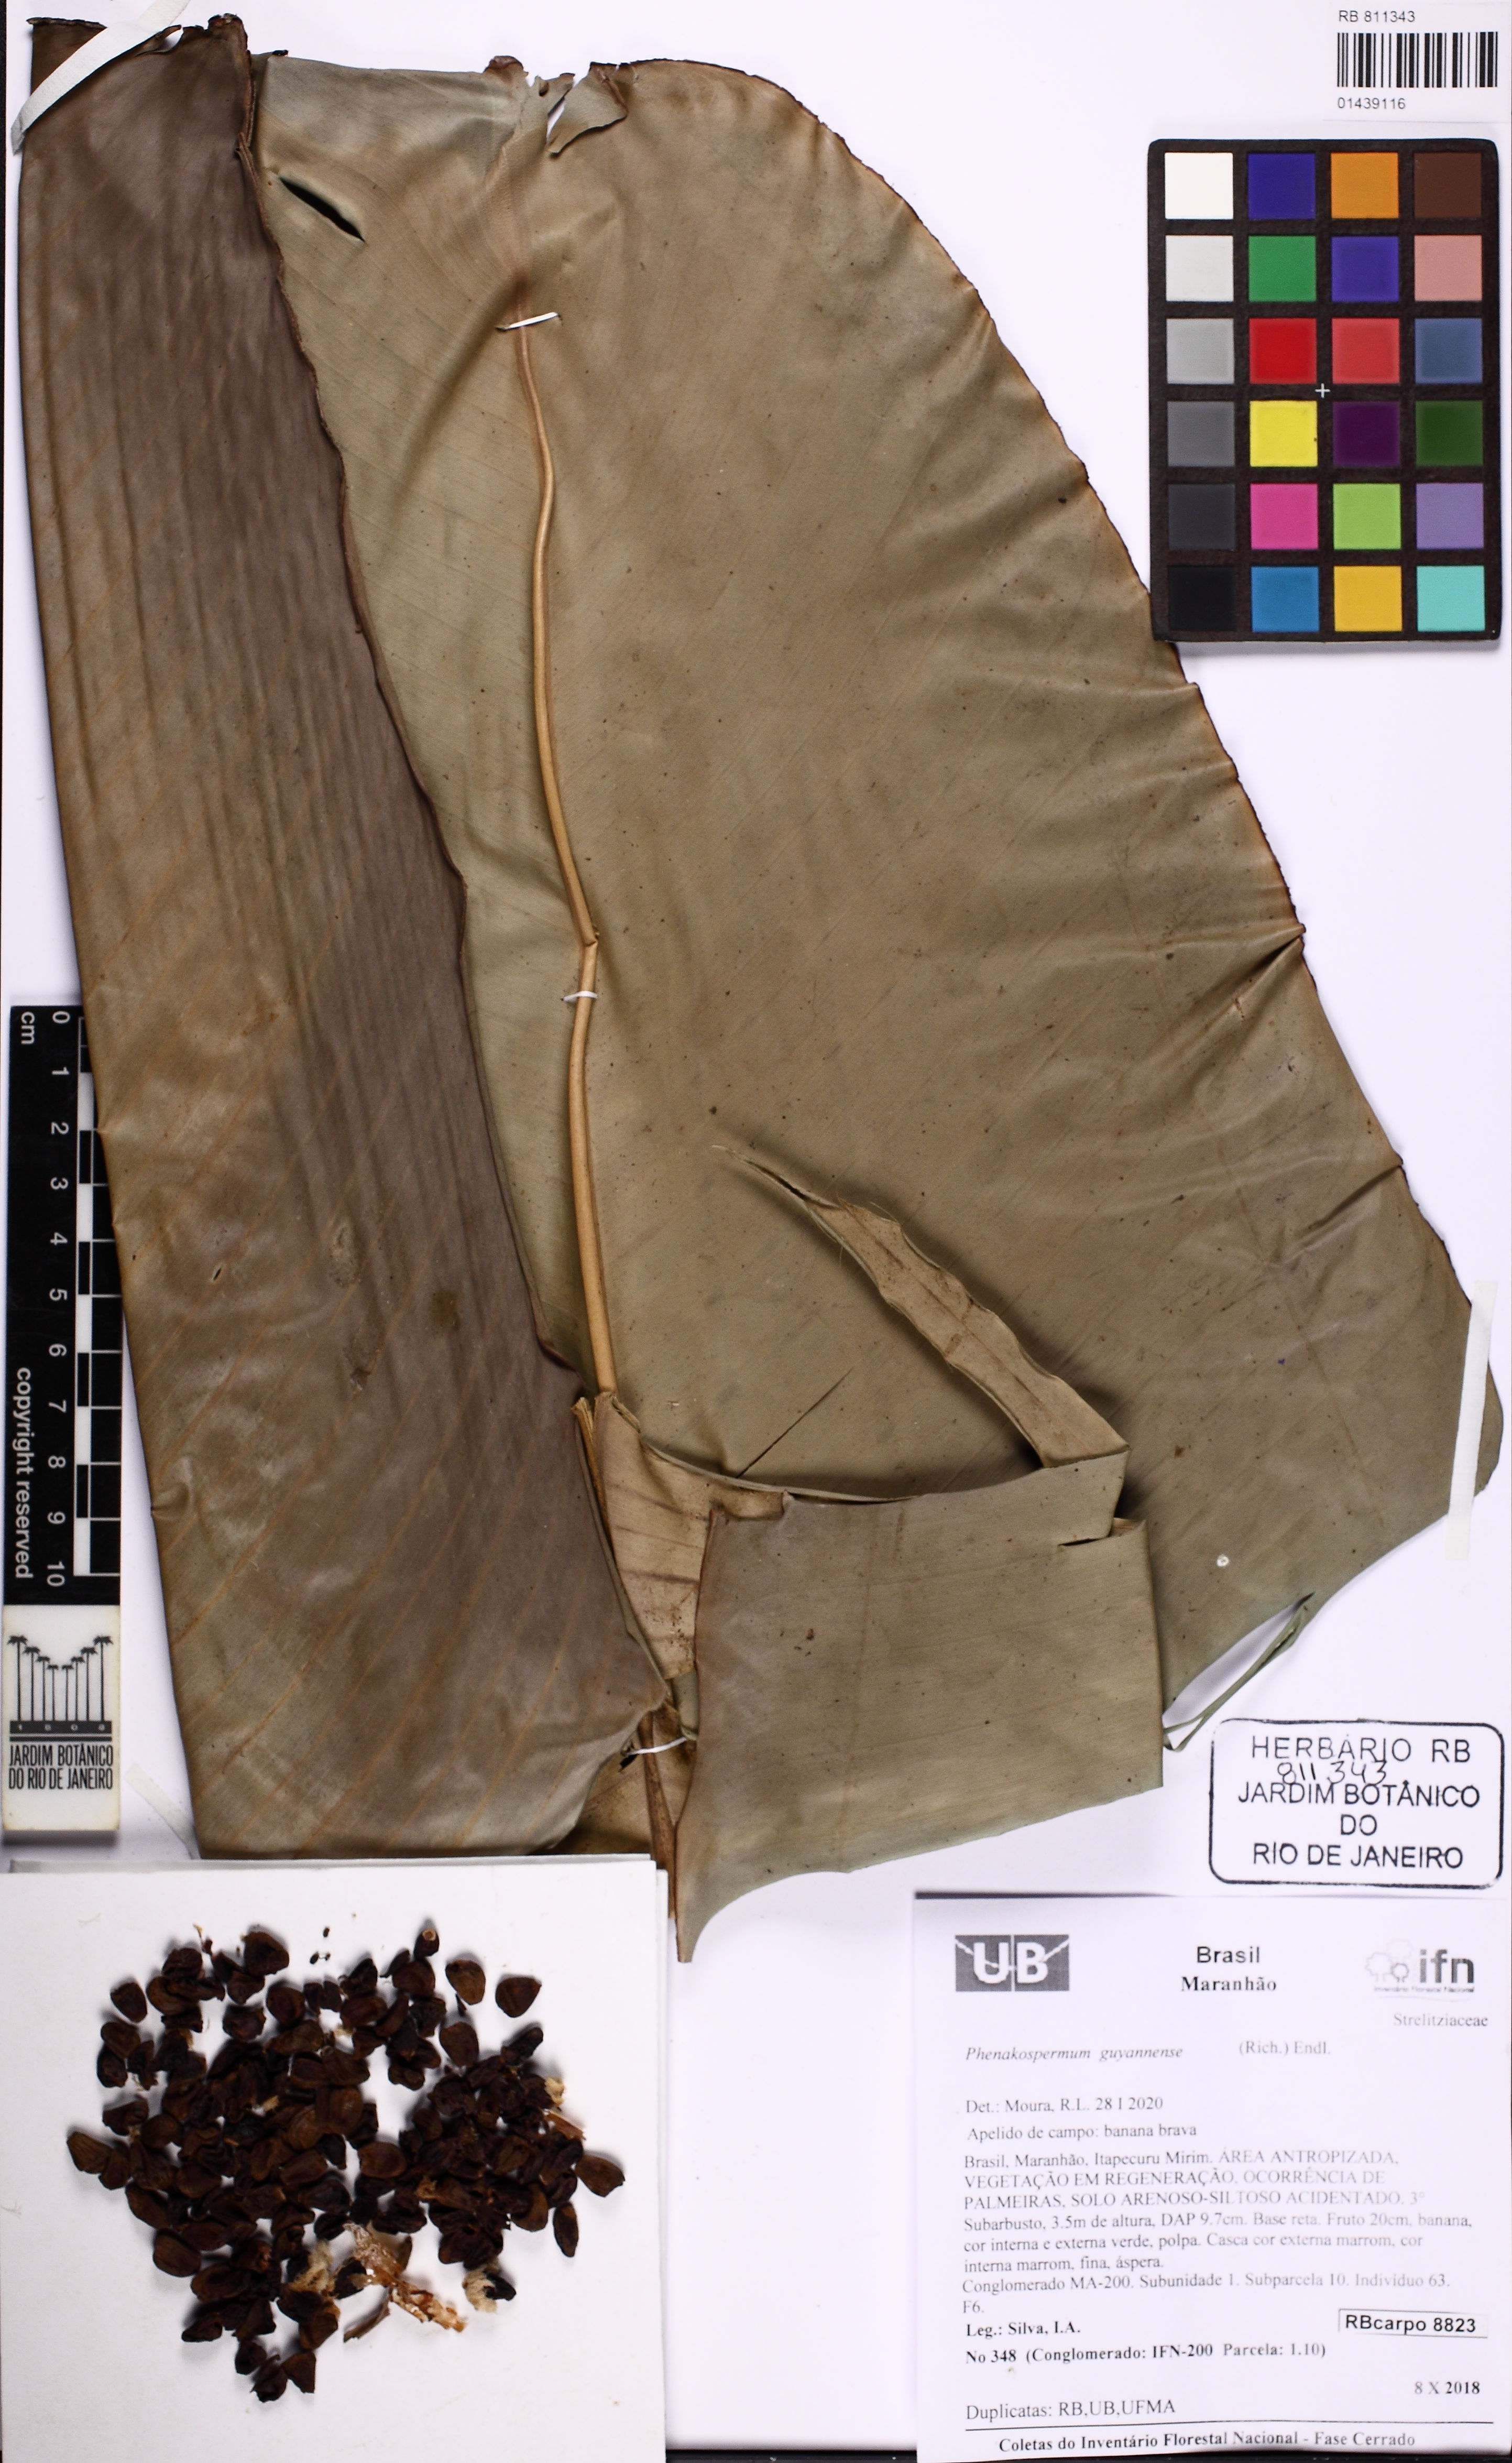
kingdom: Plantae
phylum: Tracheophyta
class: Liliopsida
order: Zingiberales
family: Strelitziaceae
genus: Phenakospermum
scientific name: Phenakospermum guyannense
